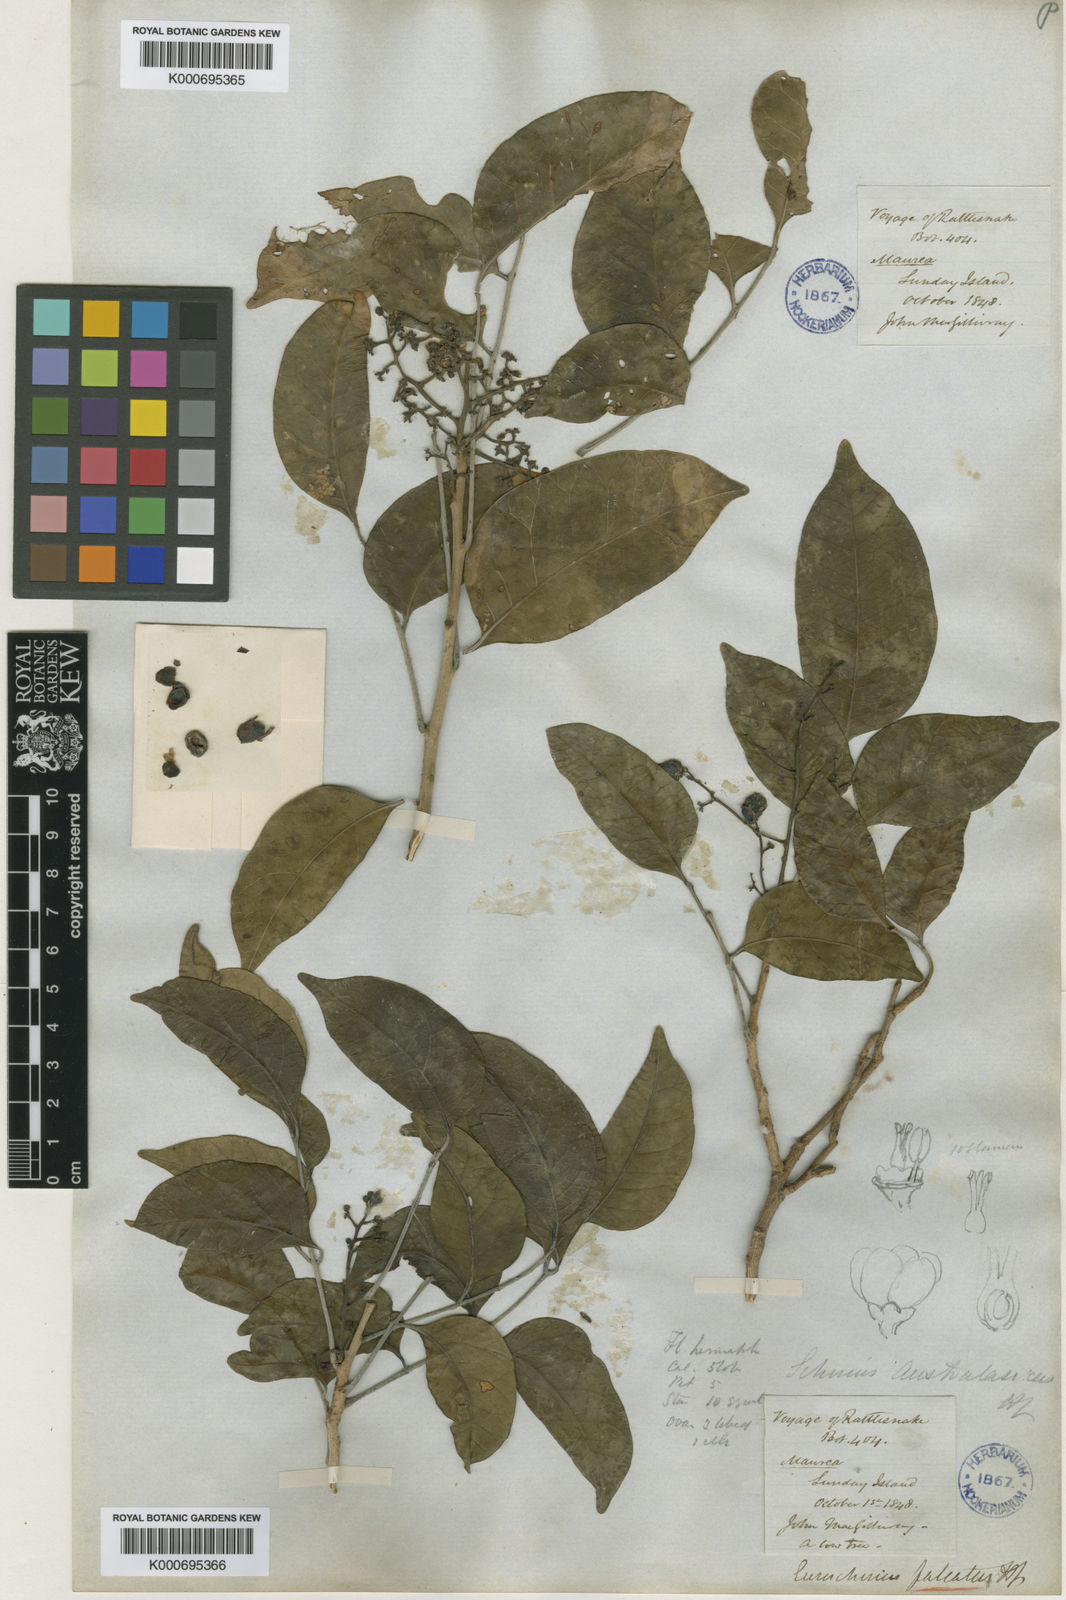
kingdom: Plantae
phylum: Tracheophyta
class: Magnoliopsida
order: Sapindales
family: Anacardiaceae
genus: Euroschinus
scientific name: Euroschinus falcatus
